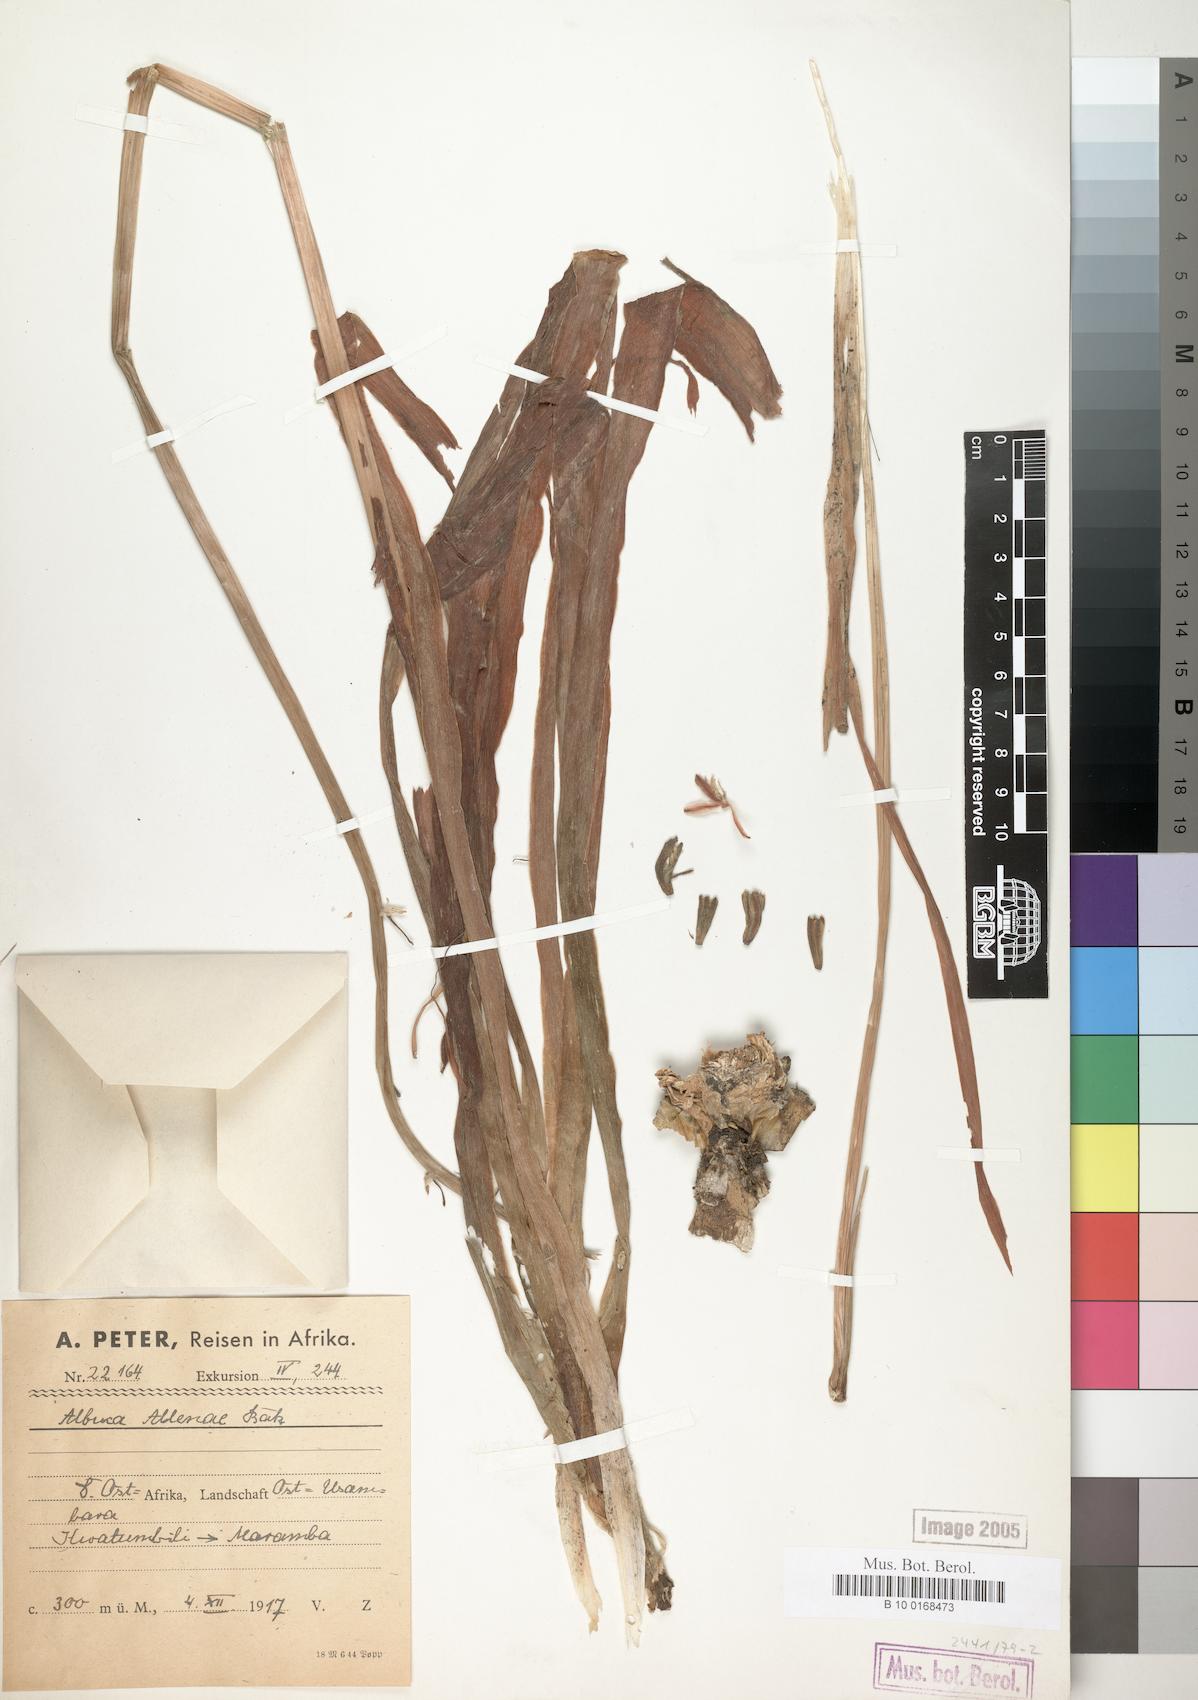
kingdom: Plantae
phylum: Tracheophyta
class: Liliopsida
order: Asparagales
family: Asparagaceae
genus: Albuca
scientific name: Albuca abyssinica
